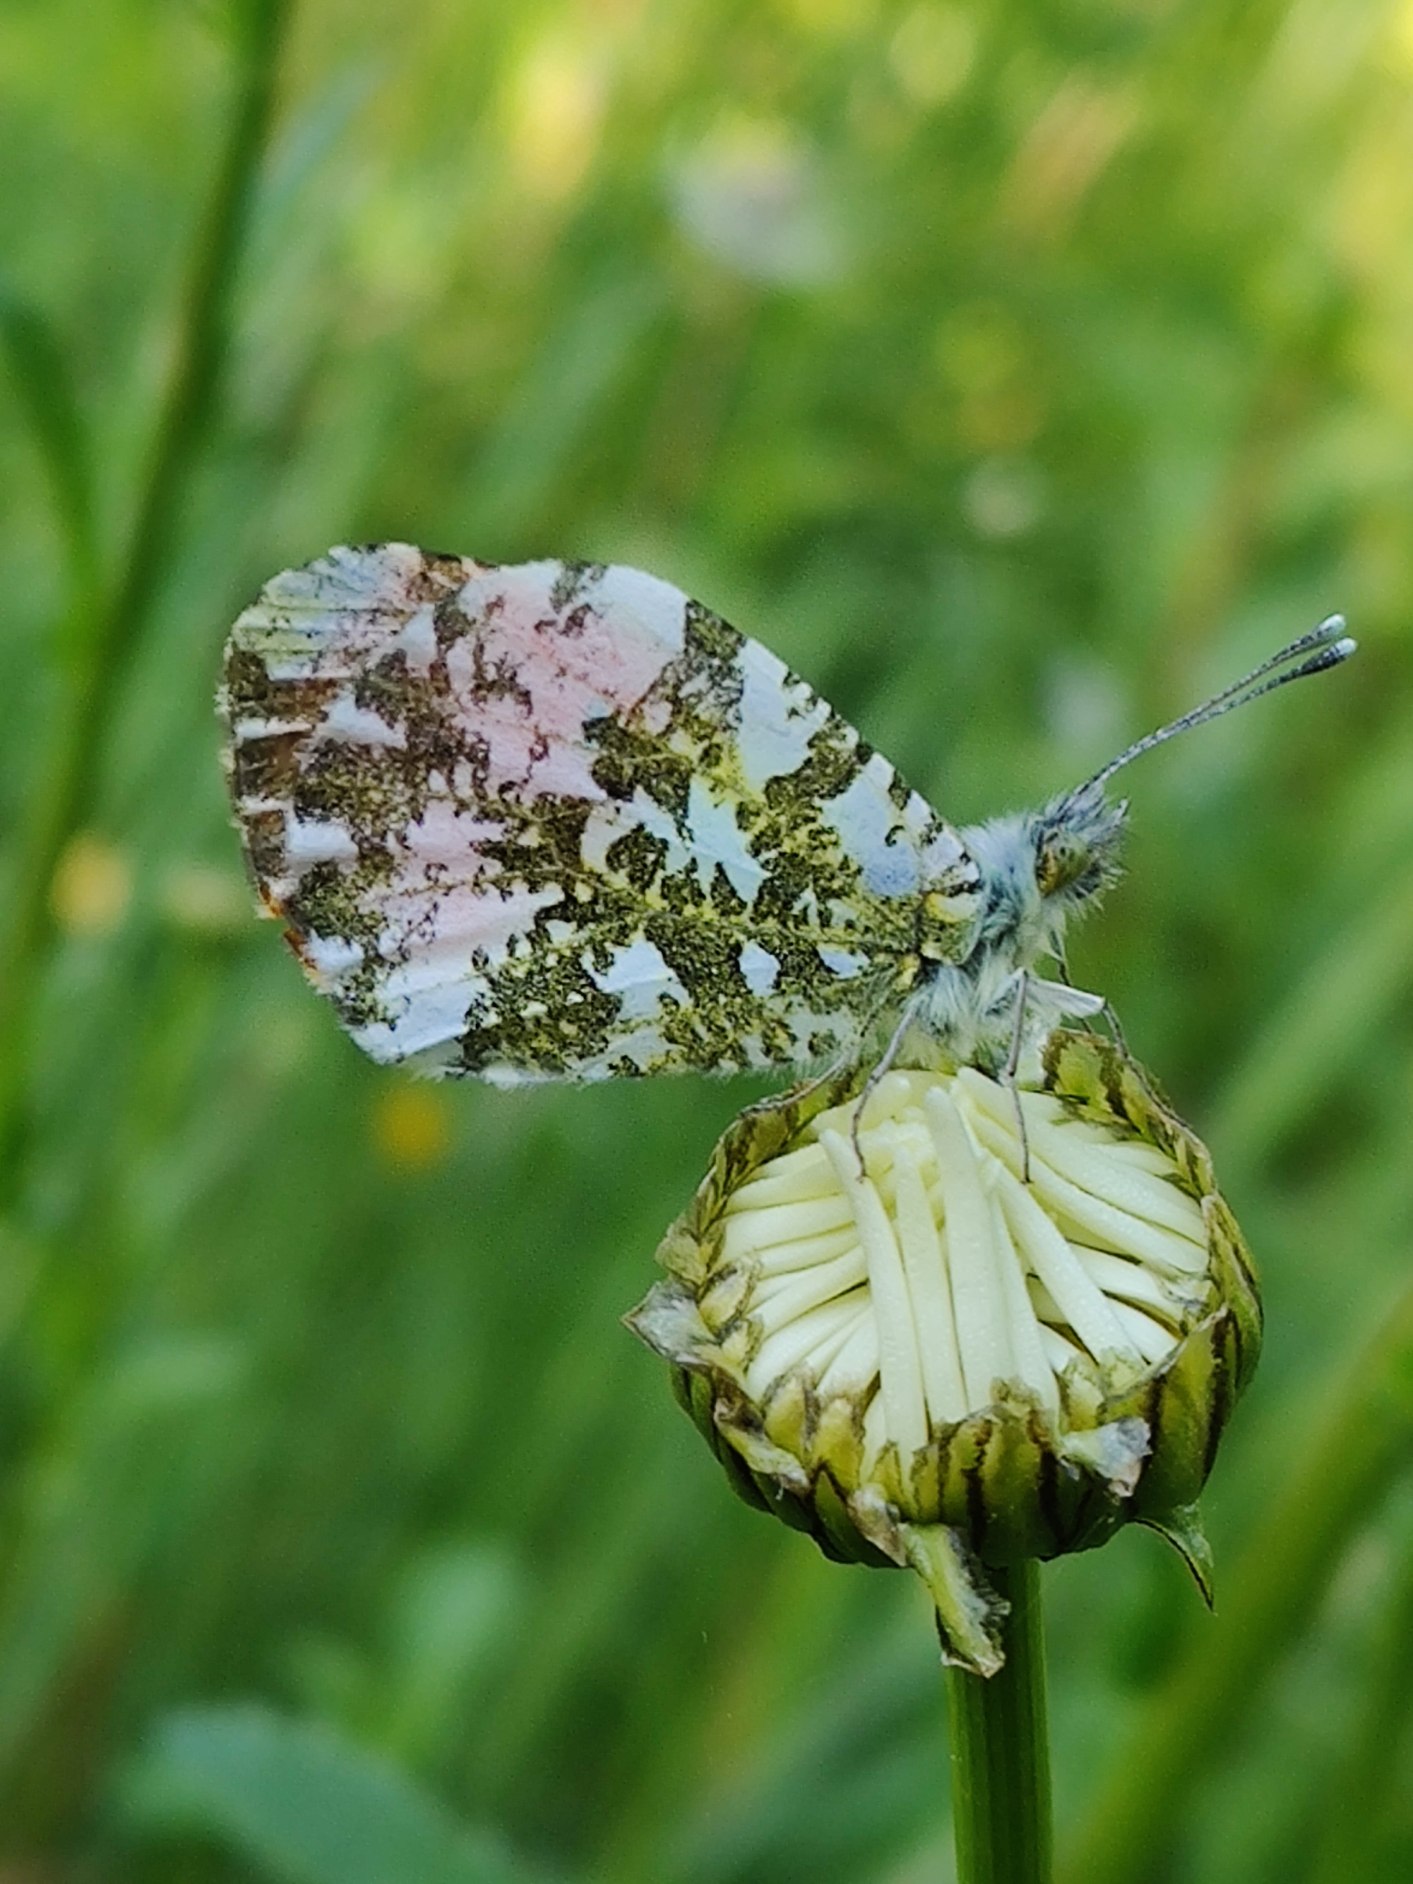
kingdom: Animalia
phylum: Arthropoda
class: Insecta
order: Lepidoptera
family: Pieridae
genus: Anthocharis
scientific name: Anthocharis cardamines
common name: Aurora
